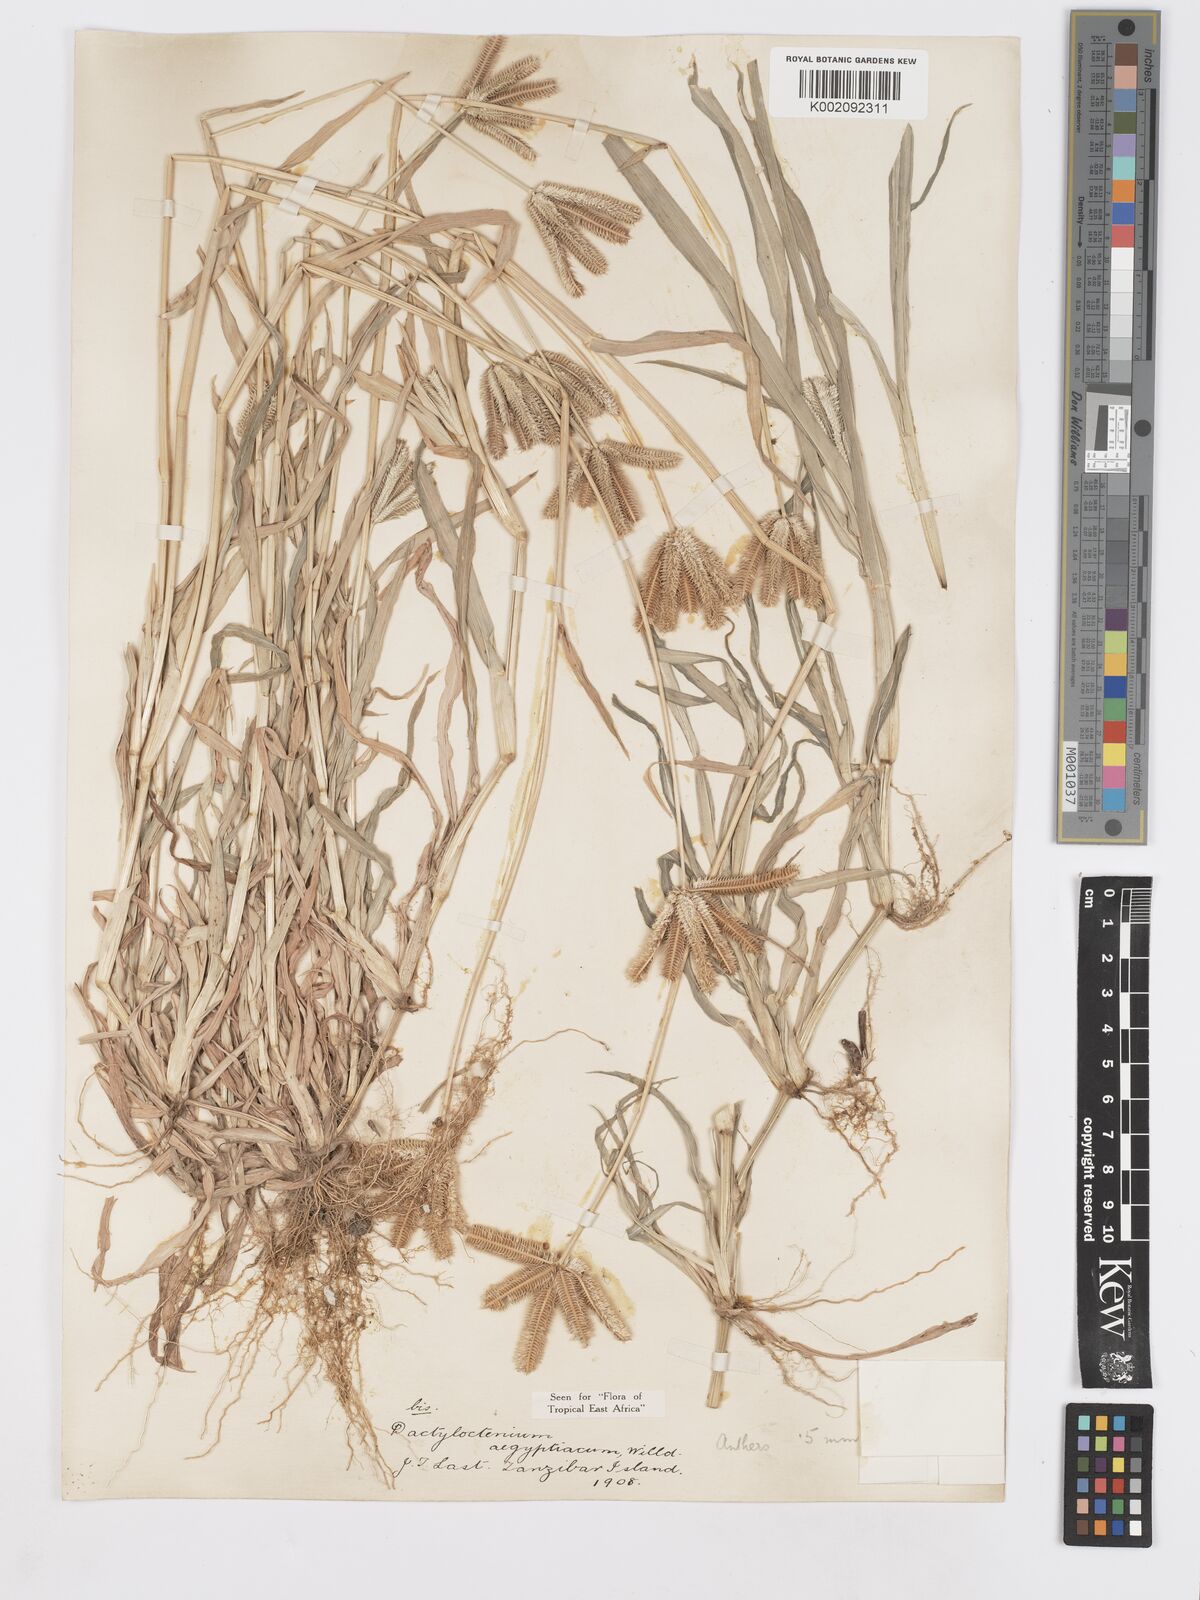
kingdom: Plantae
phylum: Tracheophyta
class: Liliopsida
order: Poales
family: Poaceae
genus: Dactyloctenium
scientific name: Dactyloctenium aristatum
